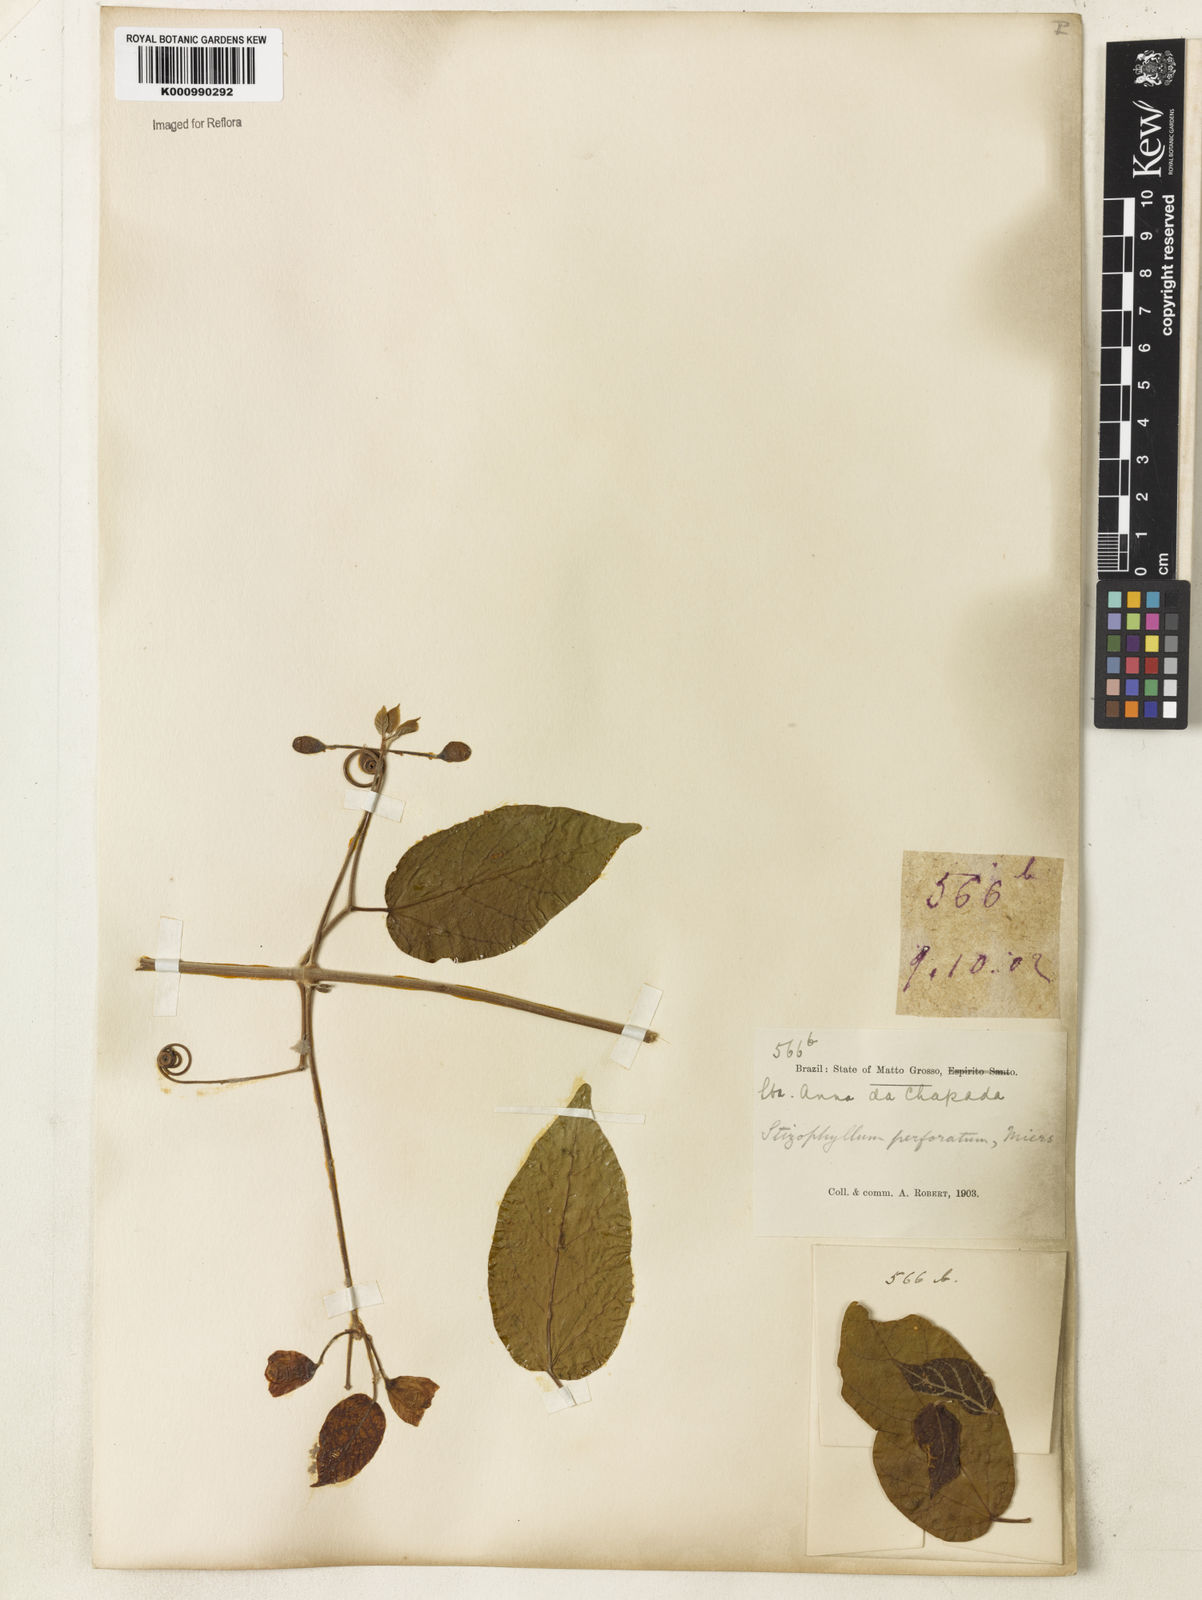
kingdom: Plantae
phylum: Tracheophyta
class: Magnoliopsida
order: Lamiales
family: Bignoniaceae
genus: Stizophyllum
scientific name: Stizophyllum perforatum
